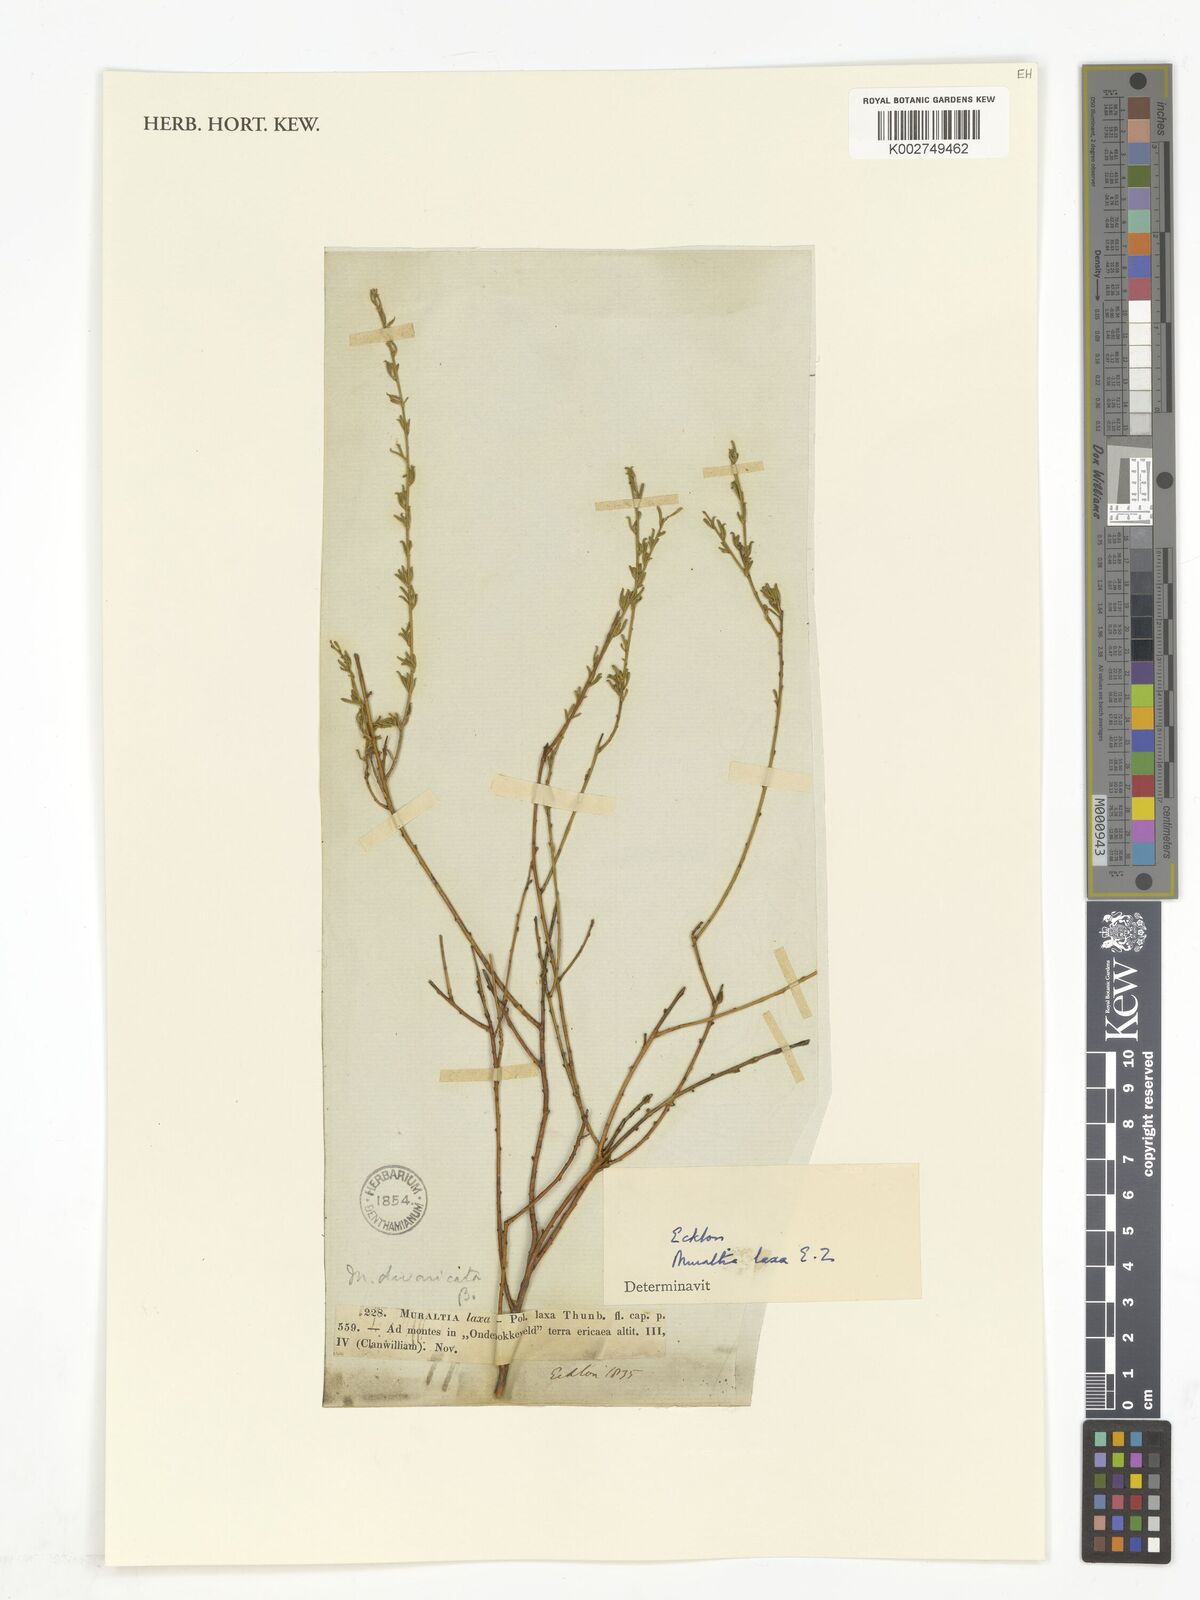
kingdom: Plantae
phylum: Tracheophyta
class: Magnoliopsida
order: Fabales
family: Polygalaceae
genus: Muraltia
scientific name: Muraltia divaricata
